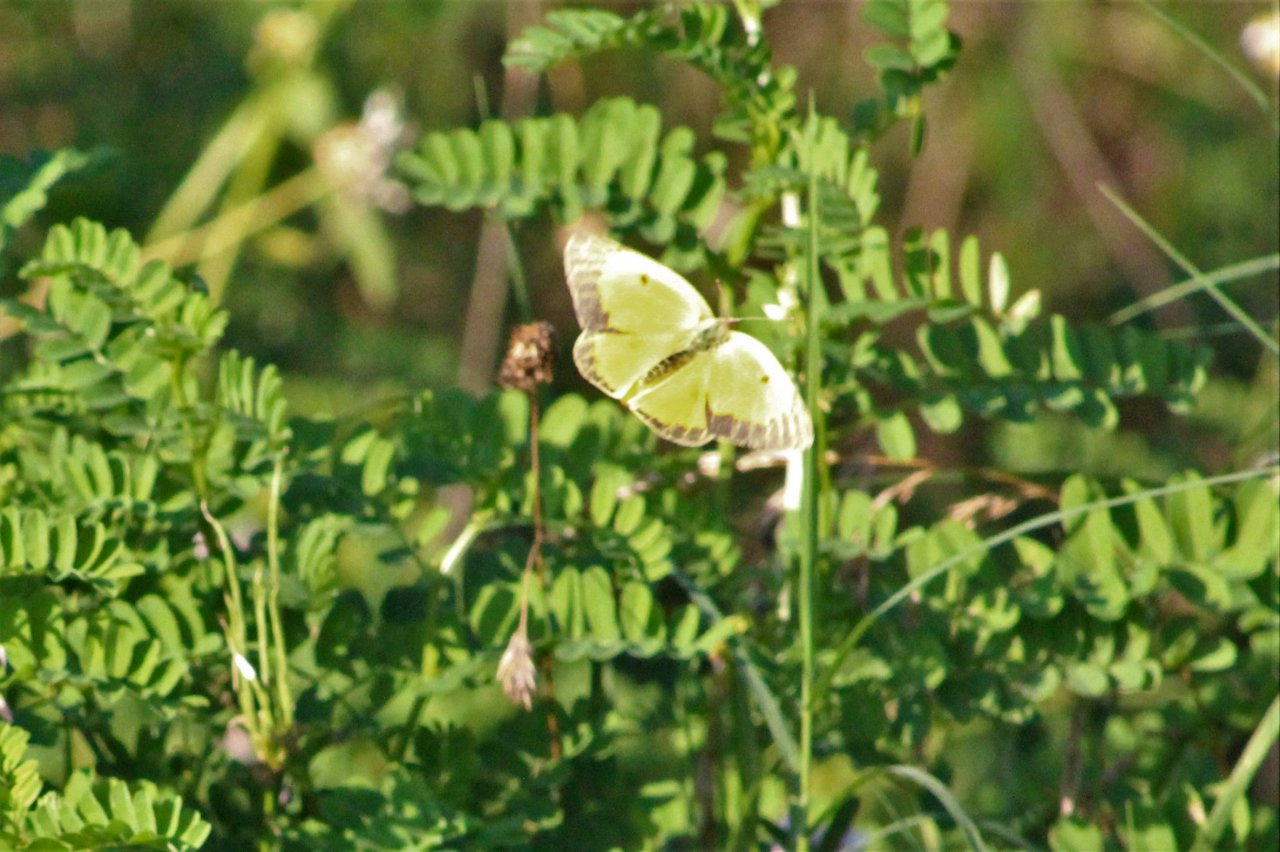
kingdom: Animalia
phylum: Arthropoda
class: Insecta
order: Lepidoptera
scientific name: Lepidoptera
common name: Butterflies
